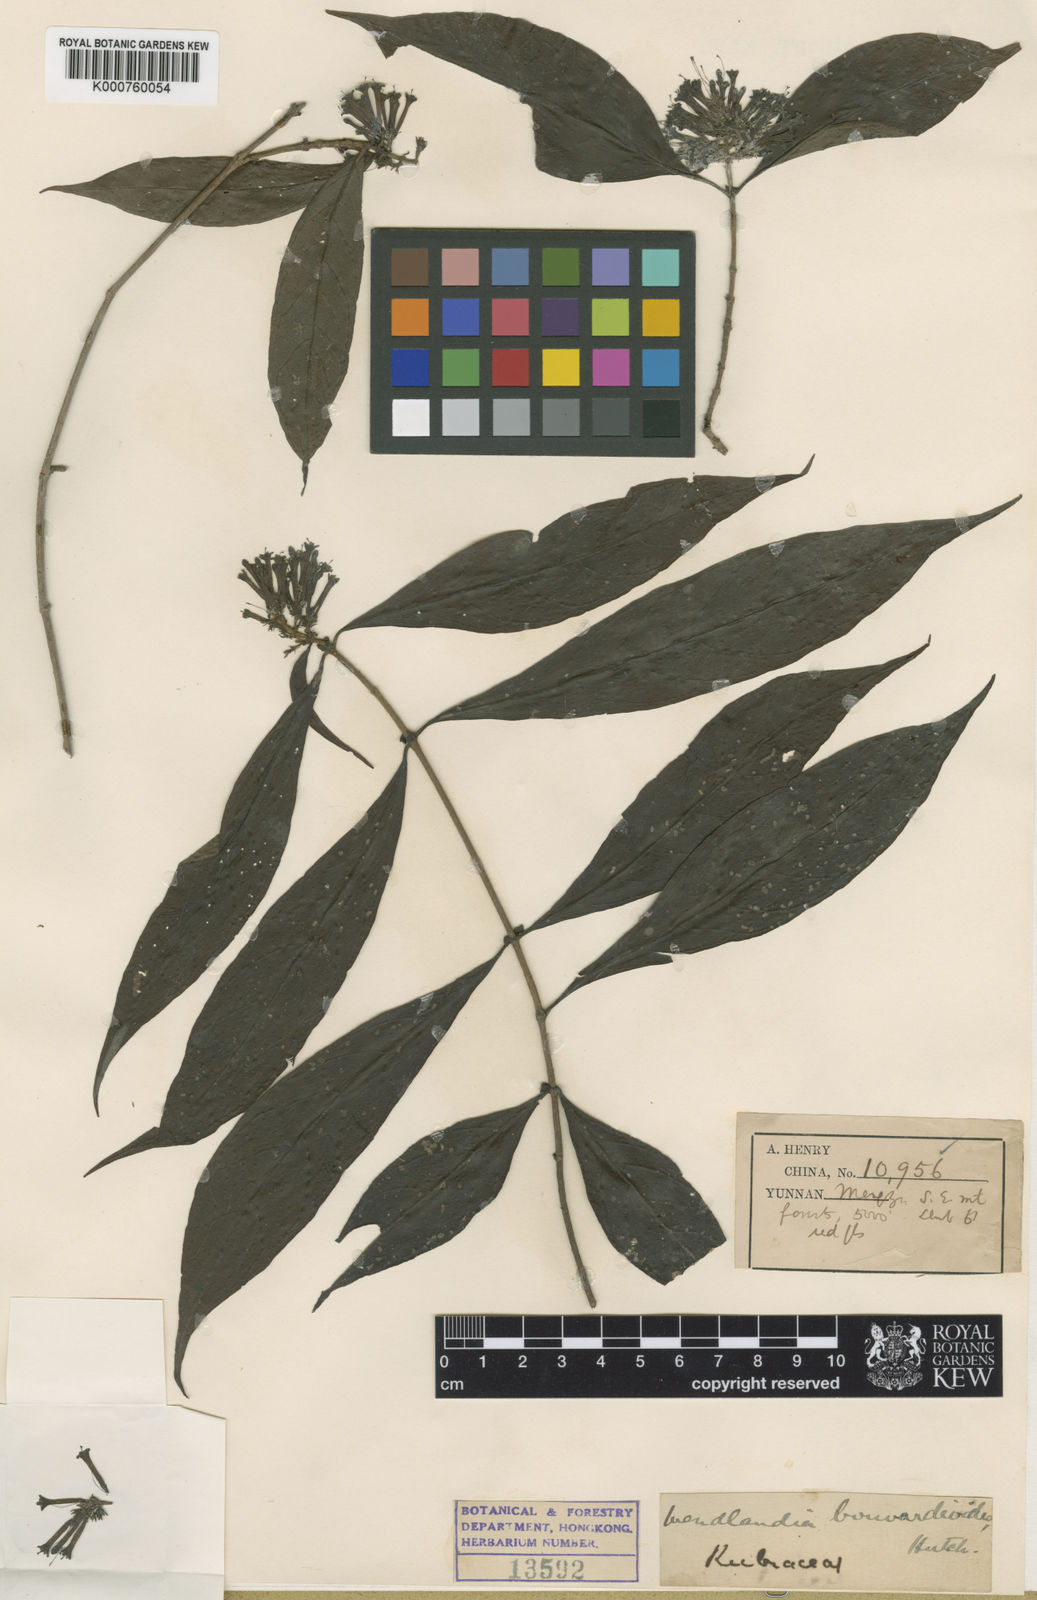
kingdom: Plantae
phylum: Tracheophyta
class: Magnoliopsida
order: Gentianales
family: Rubiaceae
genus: Wendlandia
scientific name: Wendlandia bouvardioides
